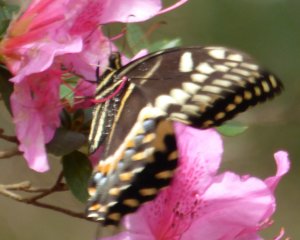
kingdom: Animalia
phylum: Arthropoda
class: Insecta
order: Lepidoptera
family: Papilionidae
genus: Pterourus
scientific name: Pterourus palamedes
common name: Palamedes Swallowtail
